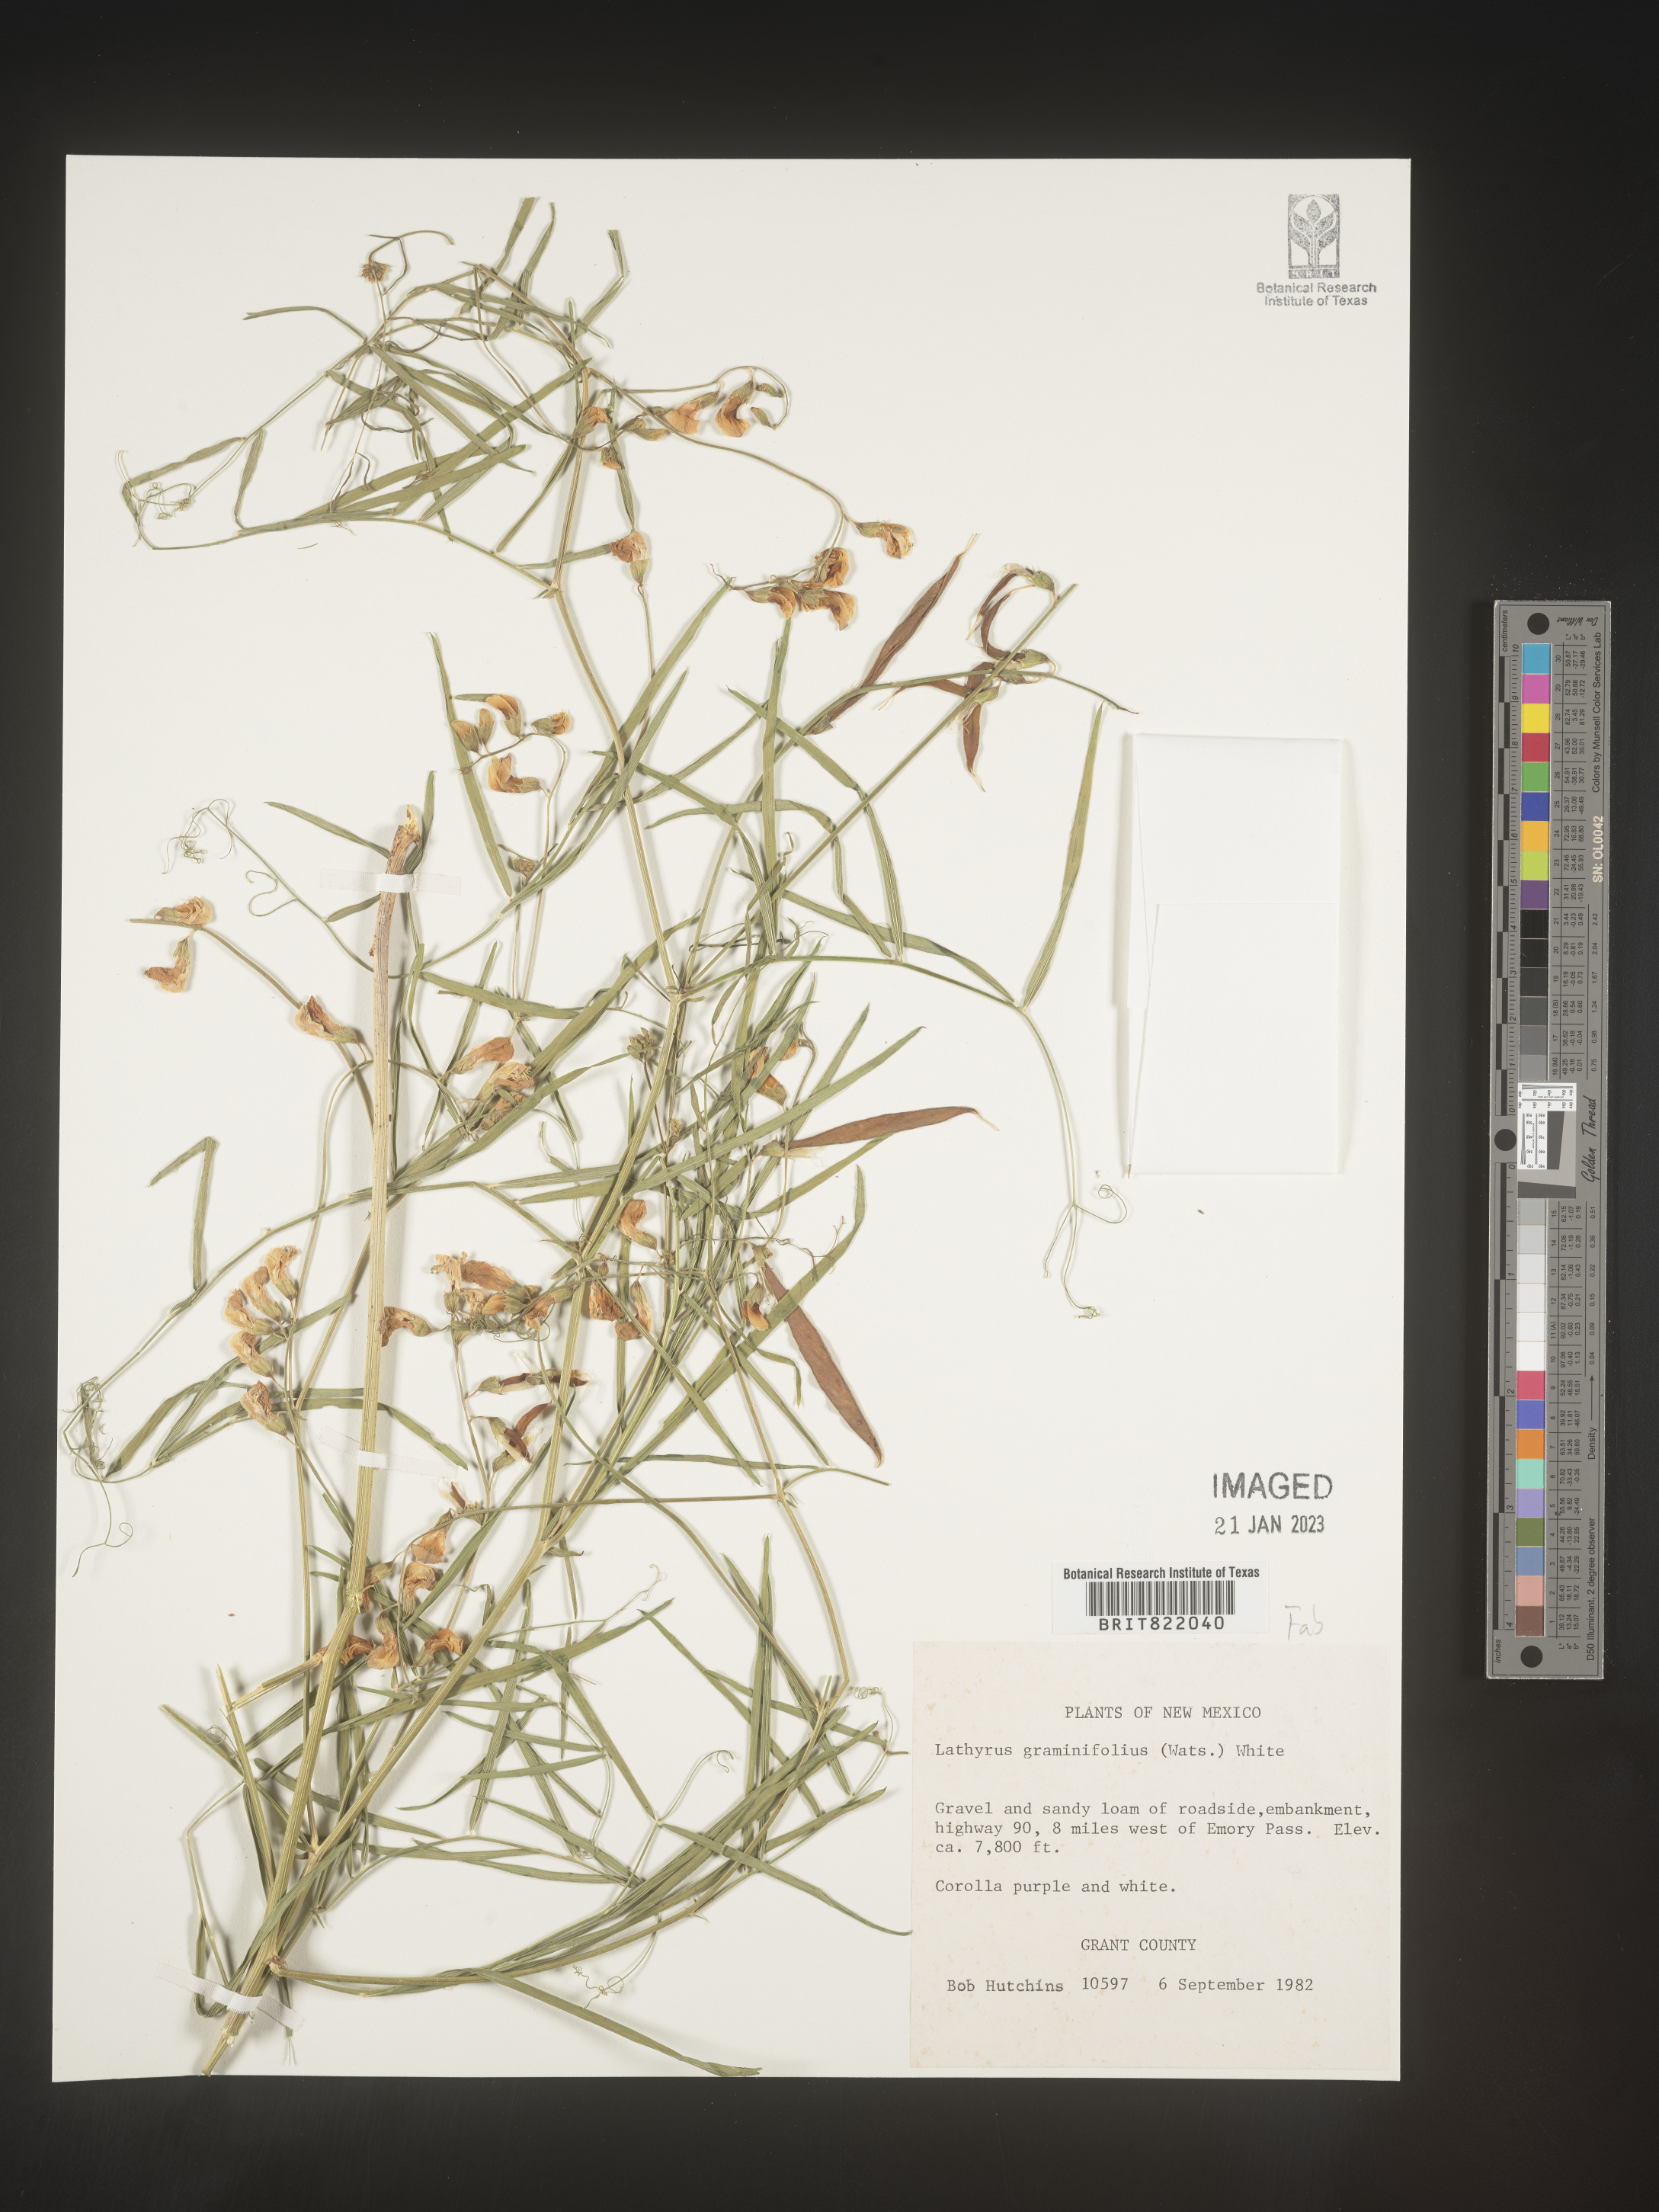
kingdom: Plantae
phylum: Tracheophyta
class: Magnoliopsida
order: Fabales
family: Fabaceae
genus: Lathyrus
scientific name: Lathyrus
